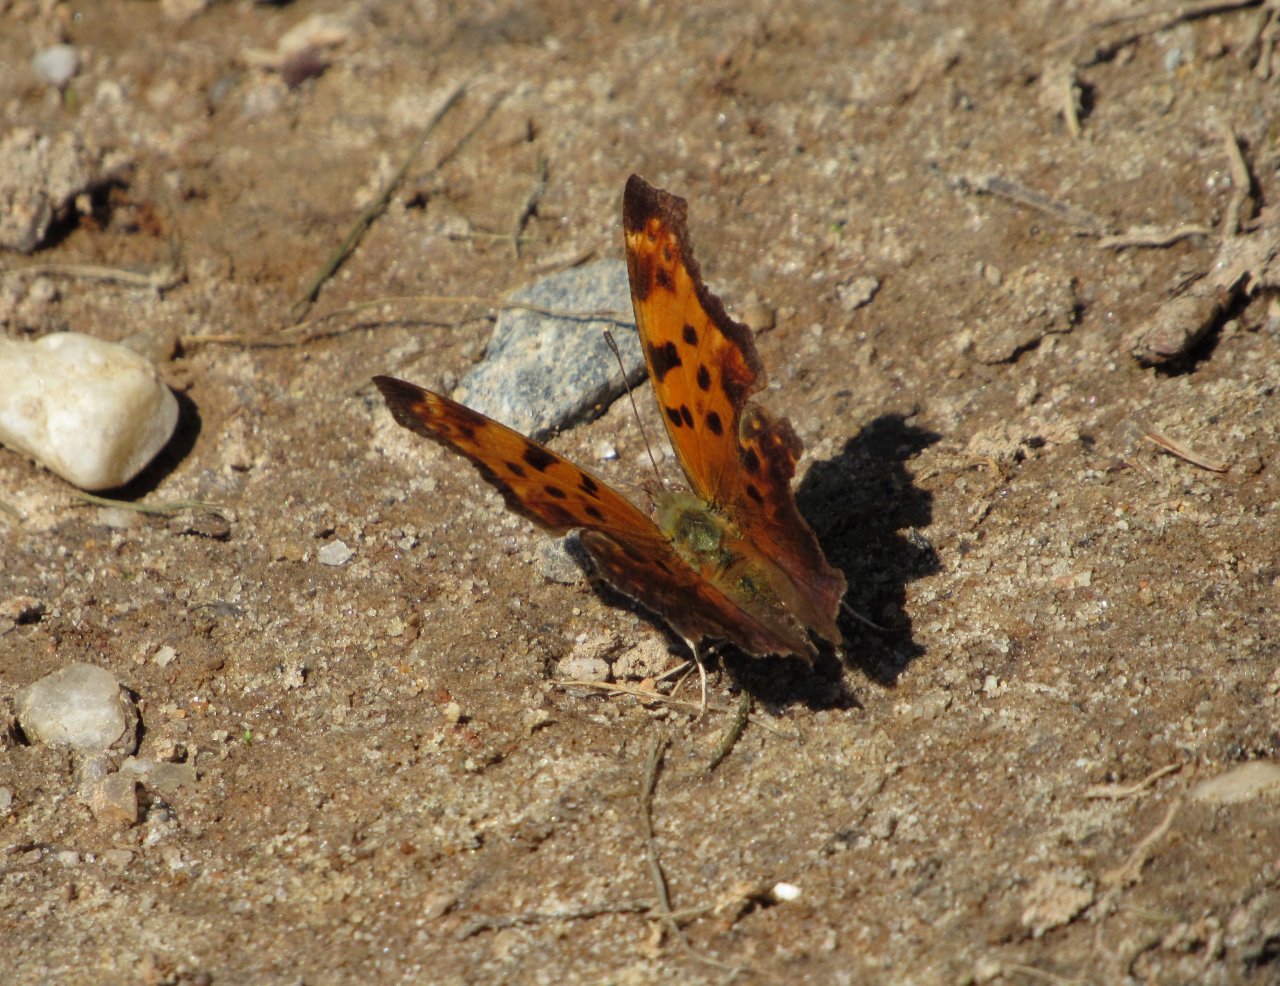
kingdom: Animalia
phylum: Arthropoda
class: Insecta
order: Lepidoptera
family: Nymphalidae
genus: Polygonia
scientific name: Polygonia comma
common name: Eastern Comma
